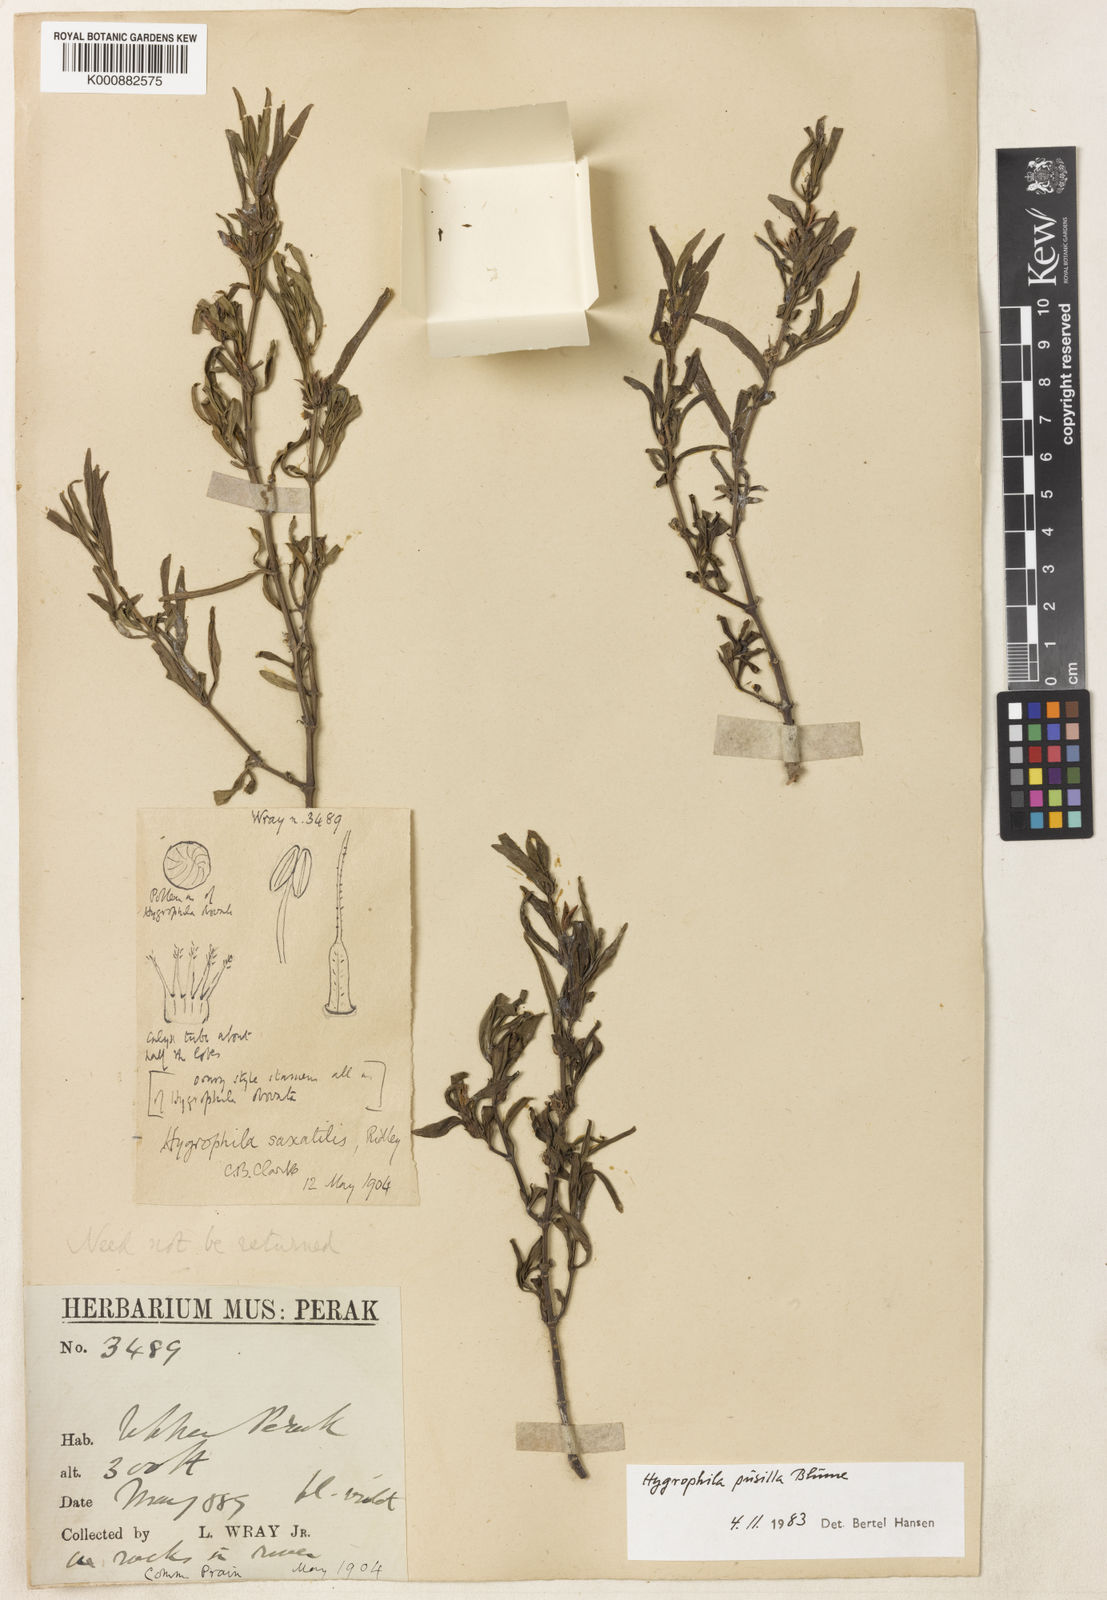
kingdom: Plantae
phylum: Tracheophyta
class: Magnoliopsida
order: Lamiales
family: Acanthaceae
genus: Hygrophila
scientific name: Hygrophila pusilla
